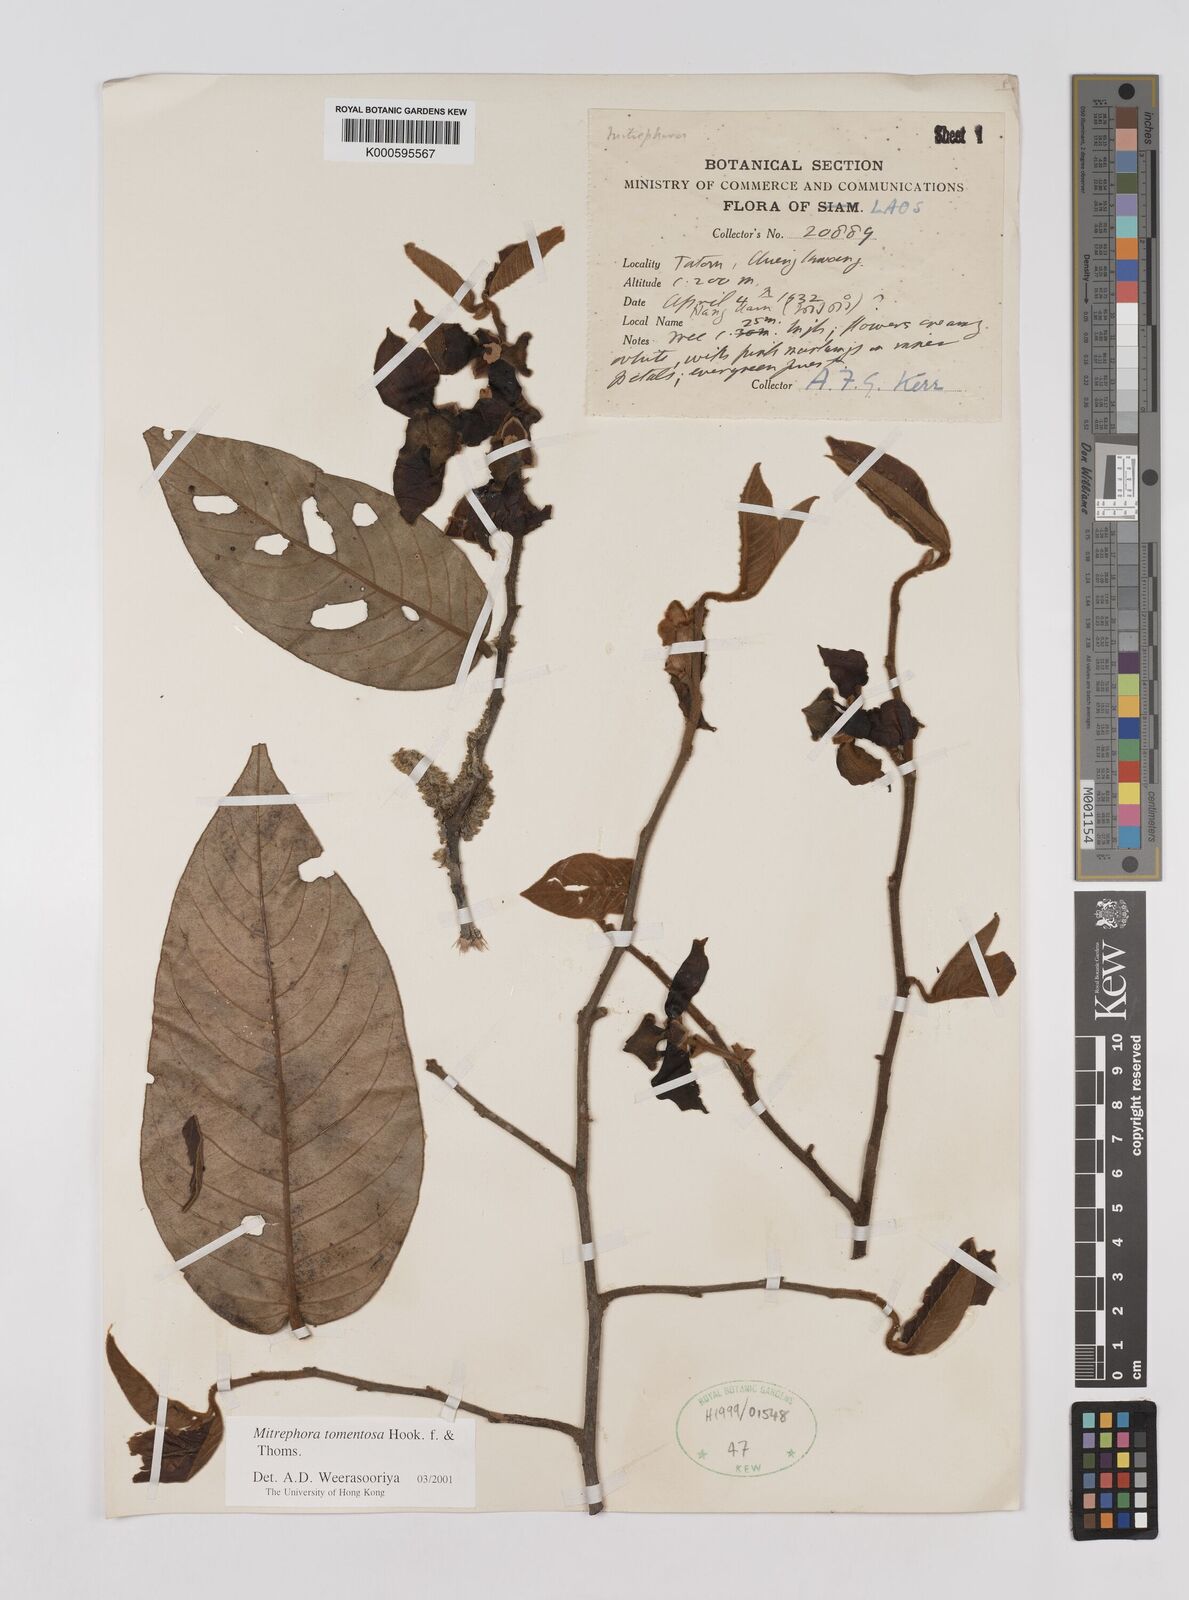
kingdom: Plantae
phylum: Tracheophyta
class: Magnoliopsida
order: Magnoliales
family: Annonaceae
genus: Mitrephora
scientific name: Mitrephora
